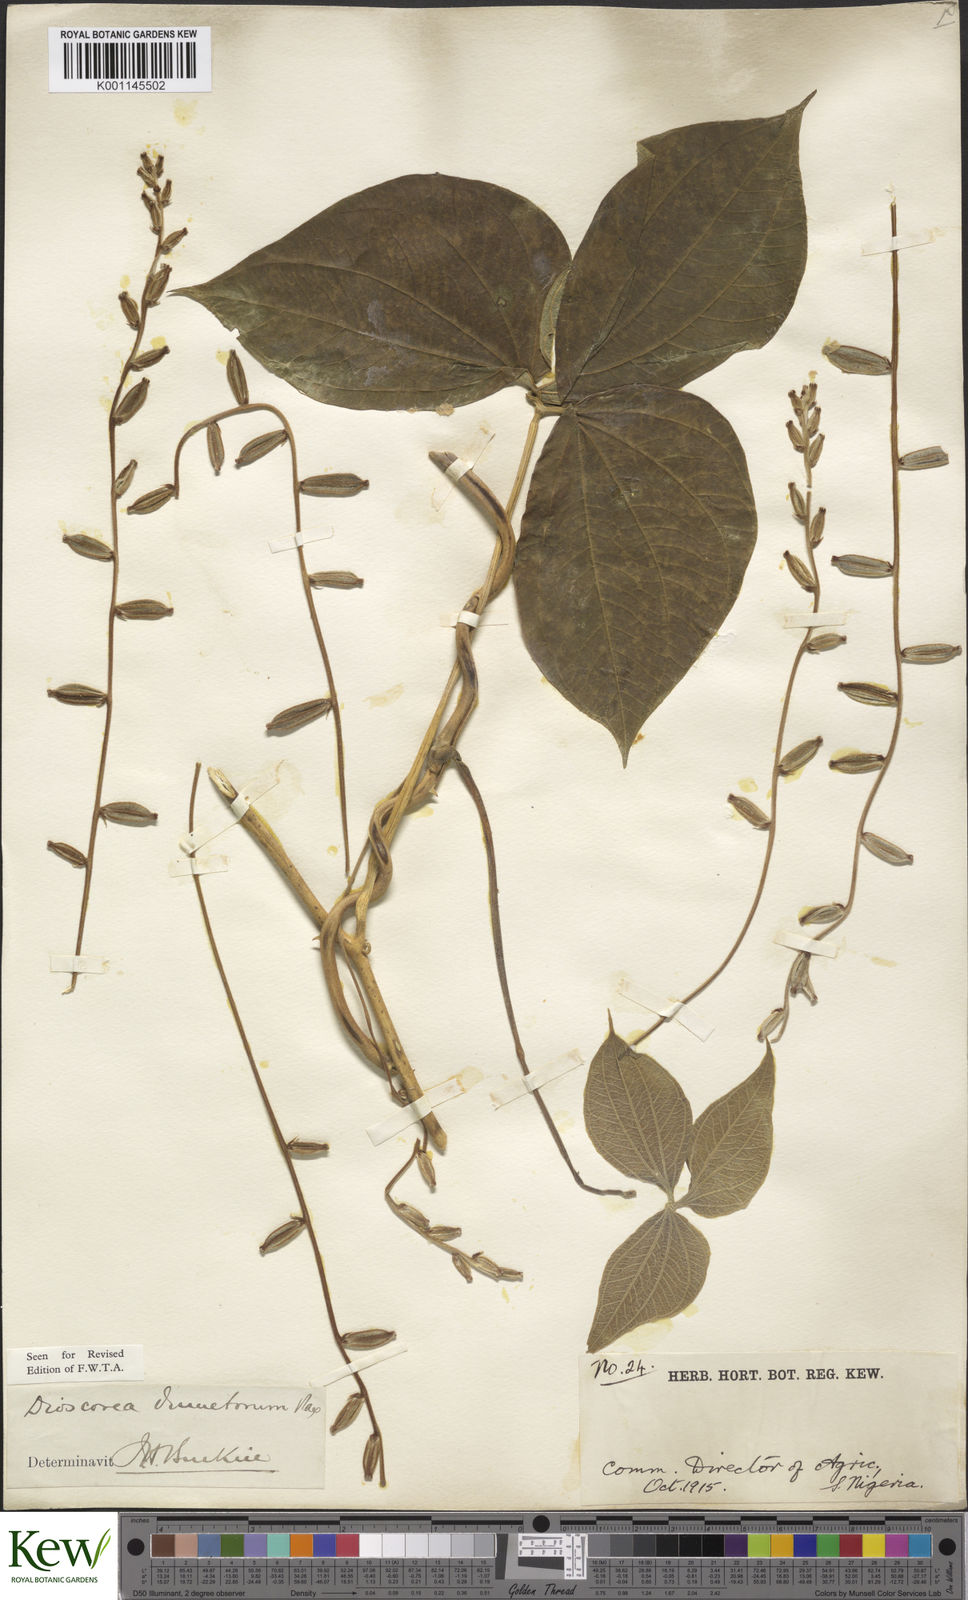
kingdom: Plantae
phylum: Tracheophyta
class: Liliopsida
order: Dioscoreales
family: Dioscoreaceae
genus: Dioscorea
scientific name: Dioscorea dumetorum
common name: African bitter yam
